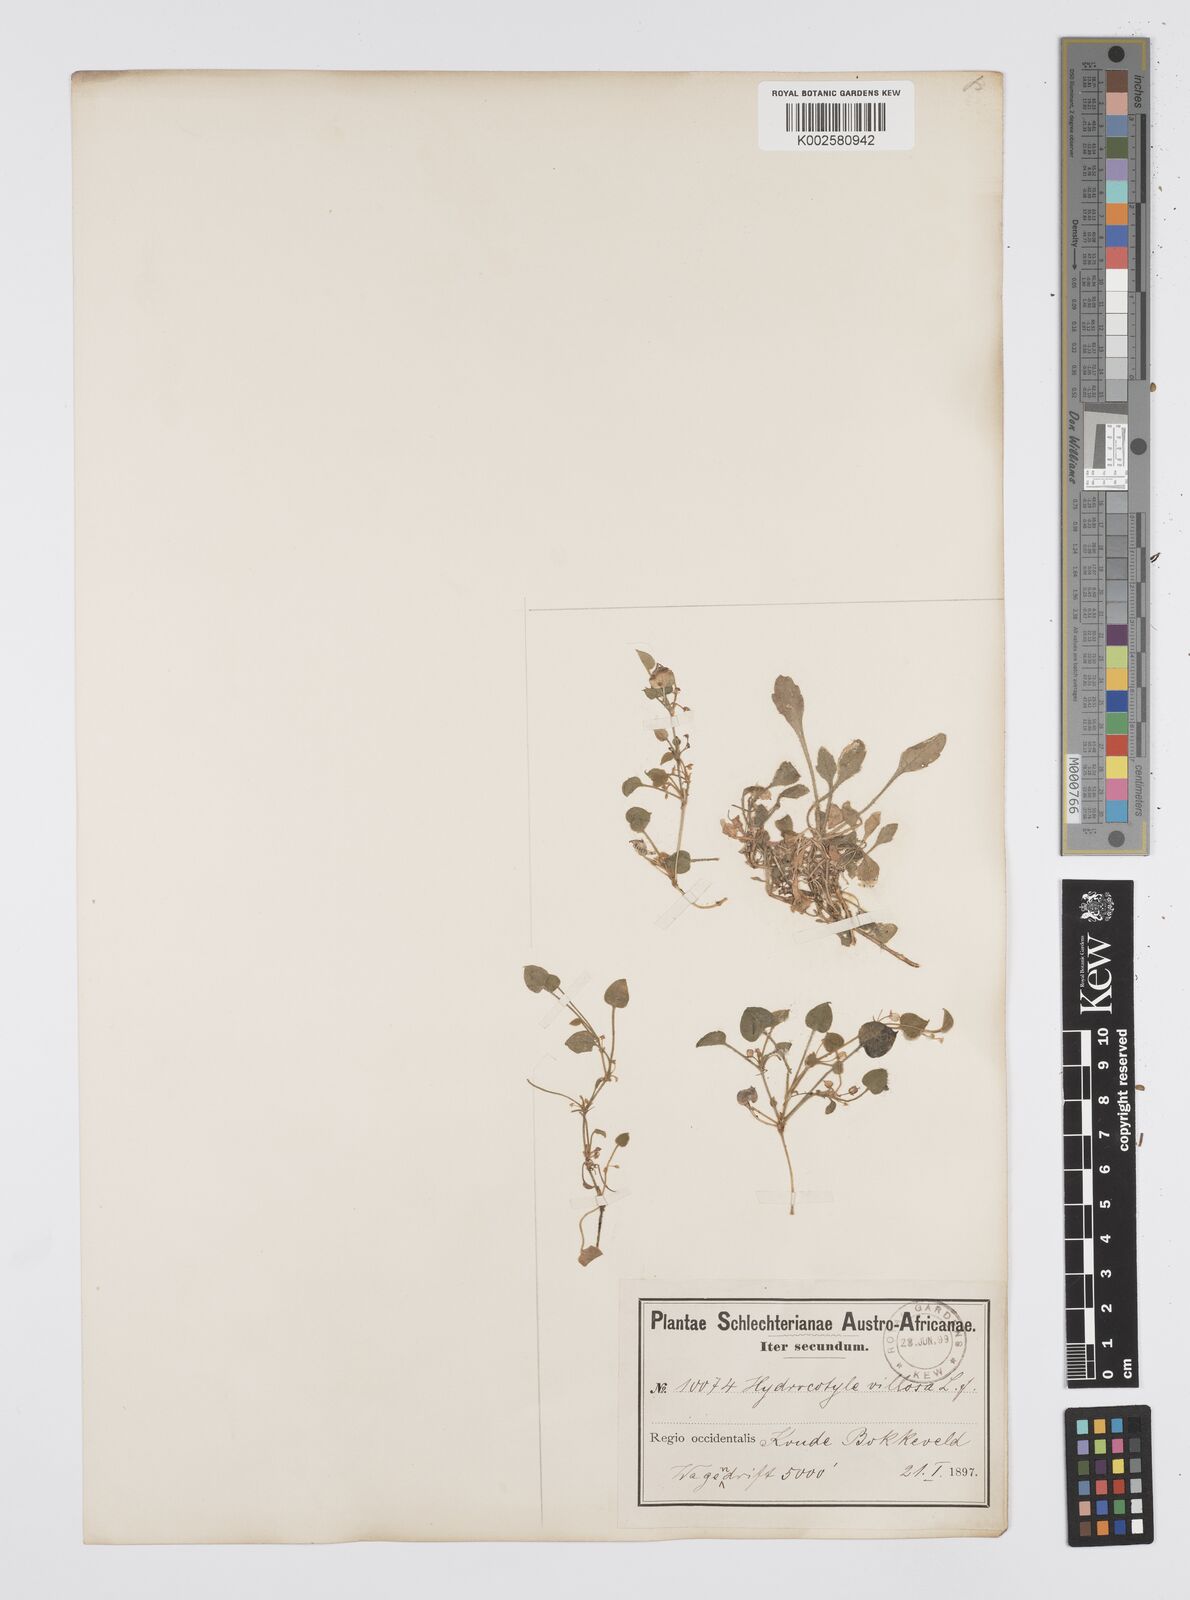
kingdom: Plantae
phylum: Tracheophyta
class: Magnoliopsida
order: Apiales
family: Apiaceae
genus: Centella
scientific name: Centella villosa
